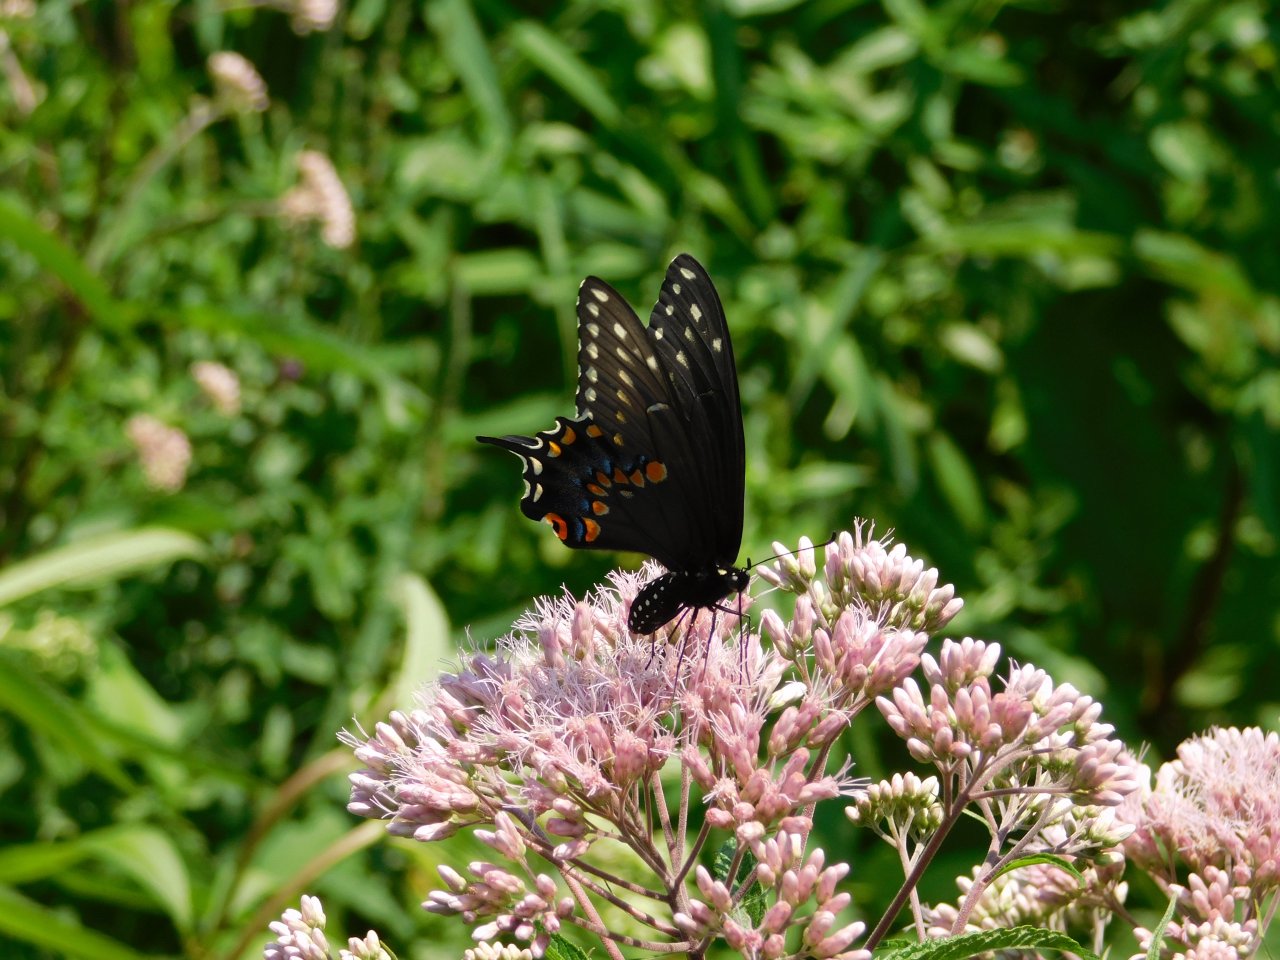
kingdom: Animalia
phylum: Arthropoda
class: Insecta
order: Lepidoptera
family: Papilionidae
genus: Papilio
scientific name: Papilio polyxenes
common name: Black Swallowtail
